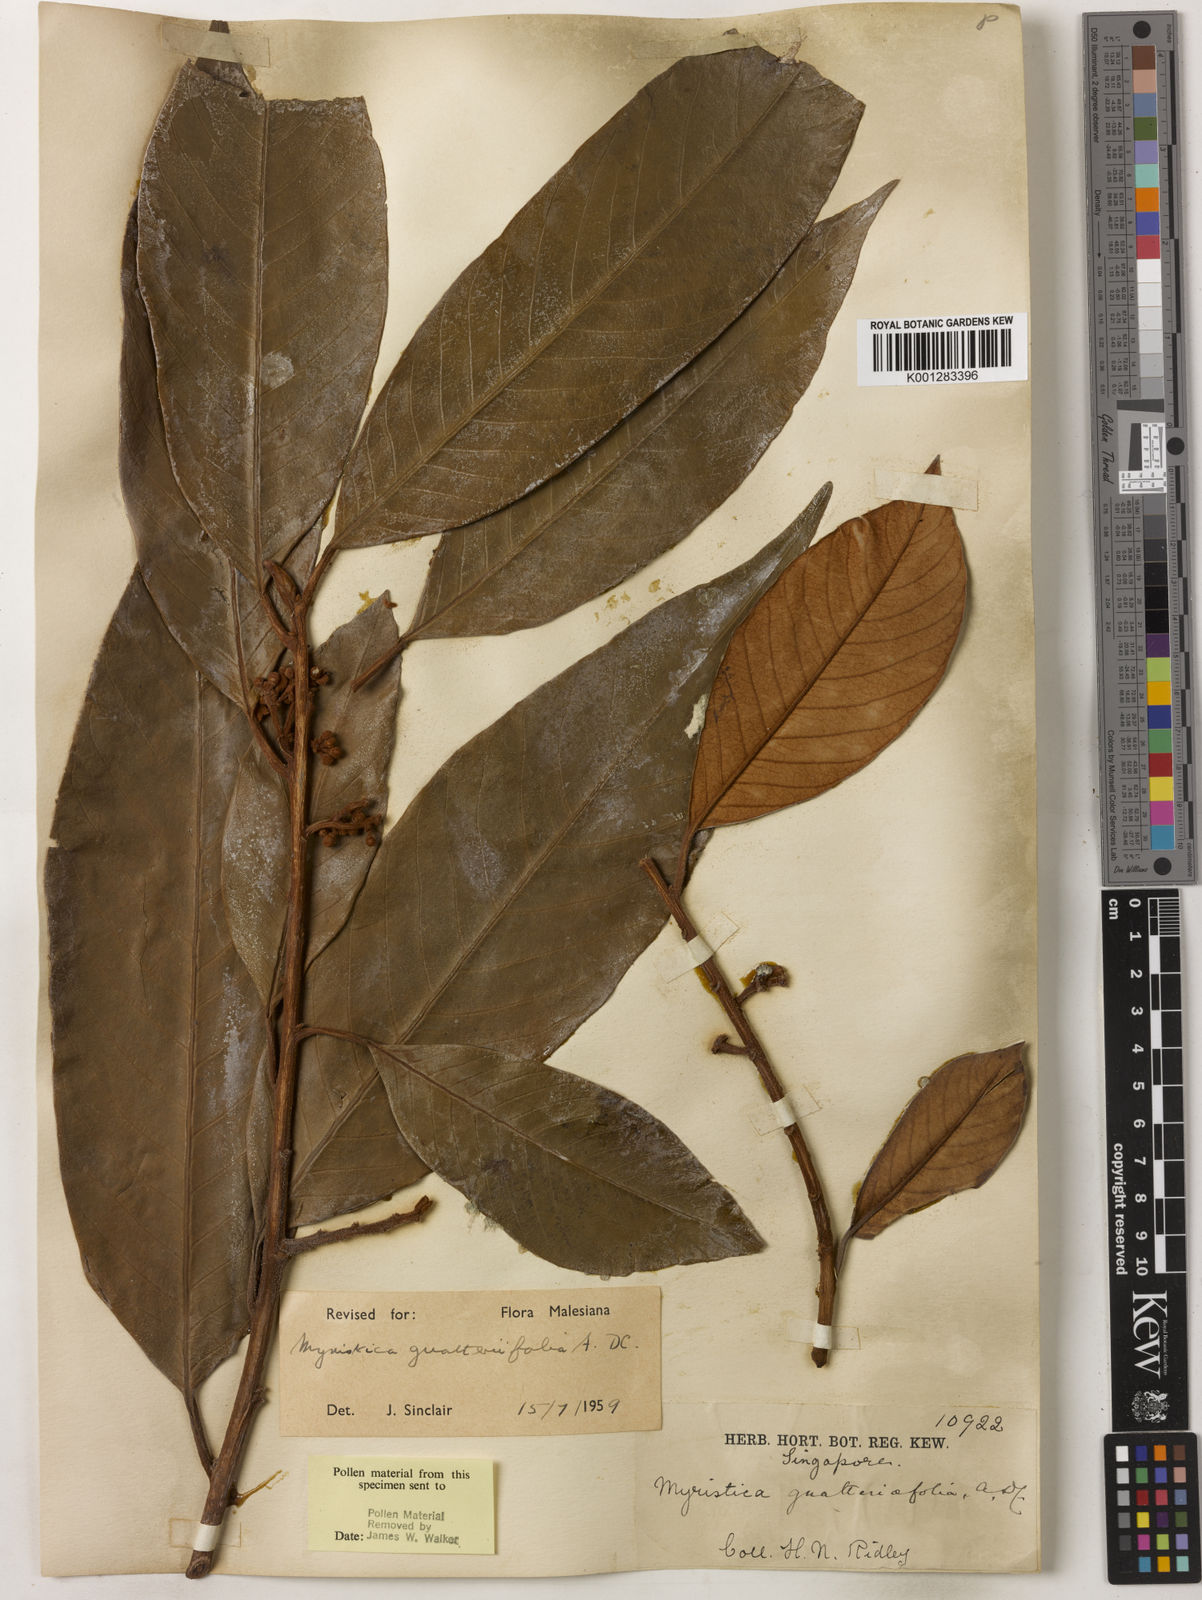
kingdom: Plantae
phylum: Tracheophyta
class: Magnoliopsida
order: Magnoliales
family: Myristicaceae
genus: Myristica
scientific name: Myristica
